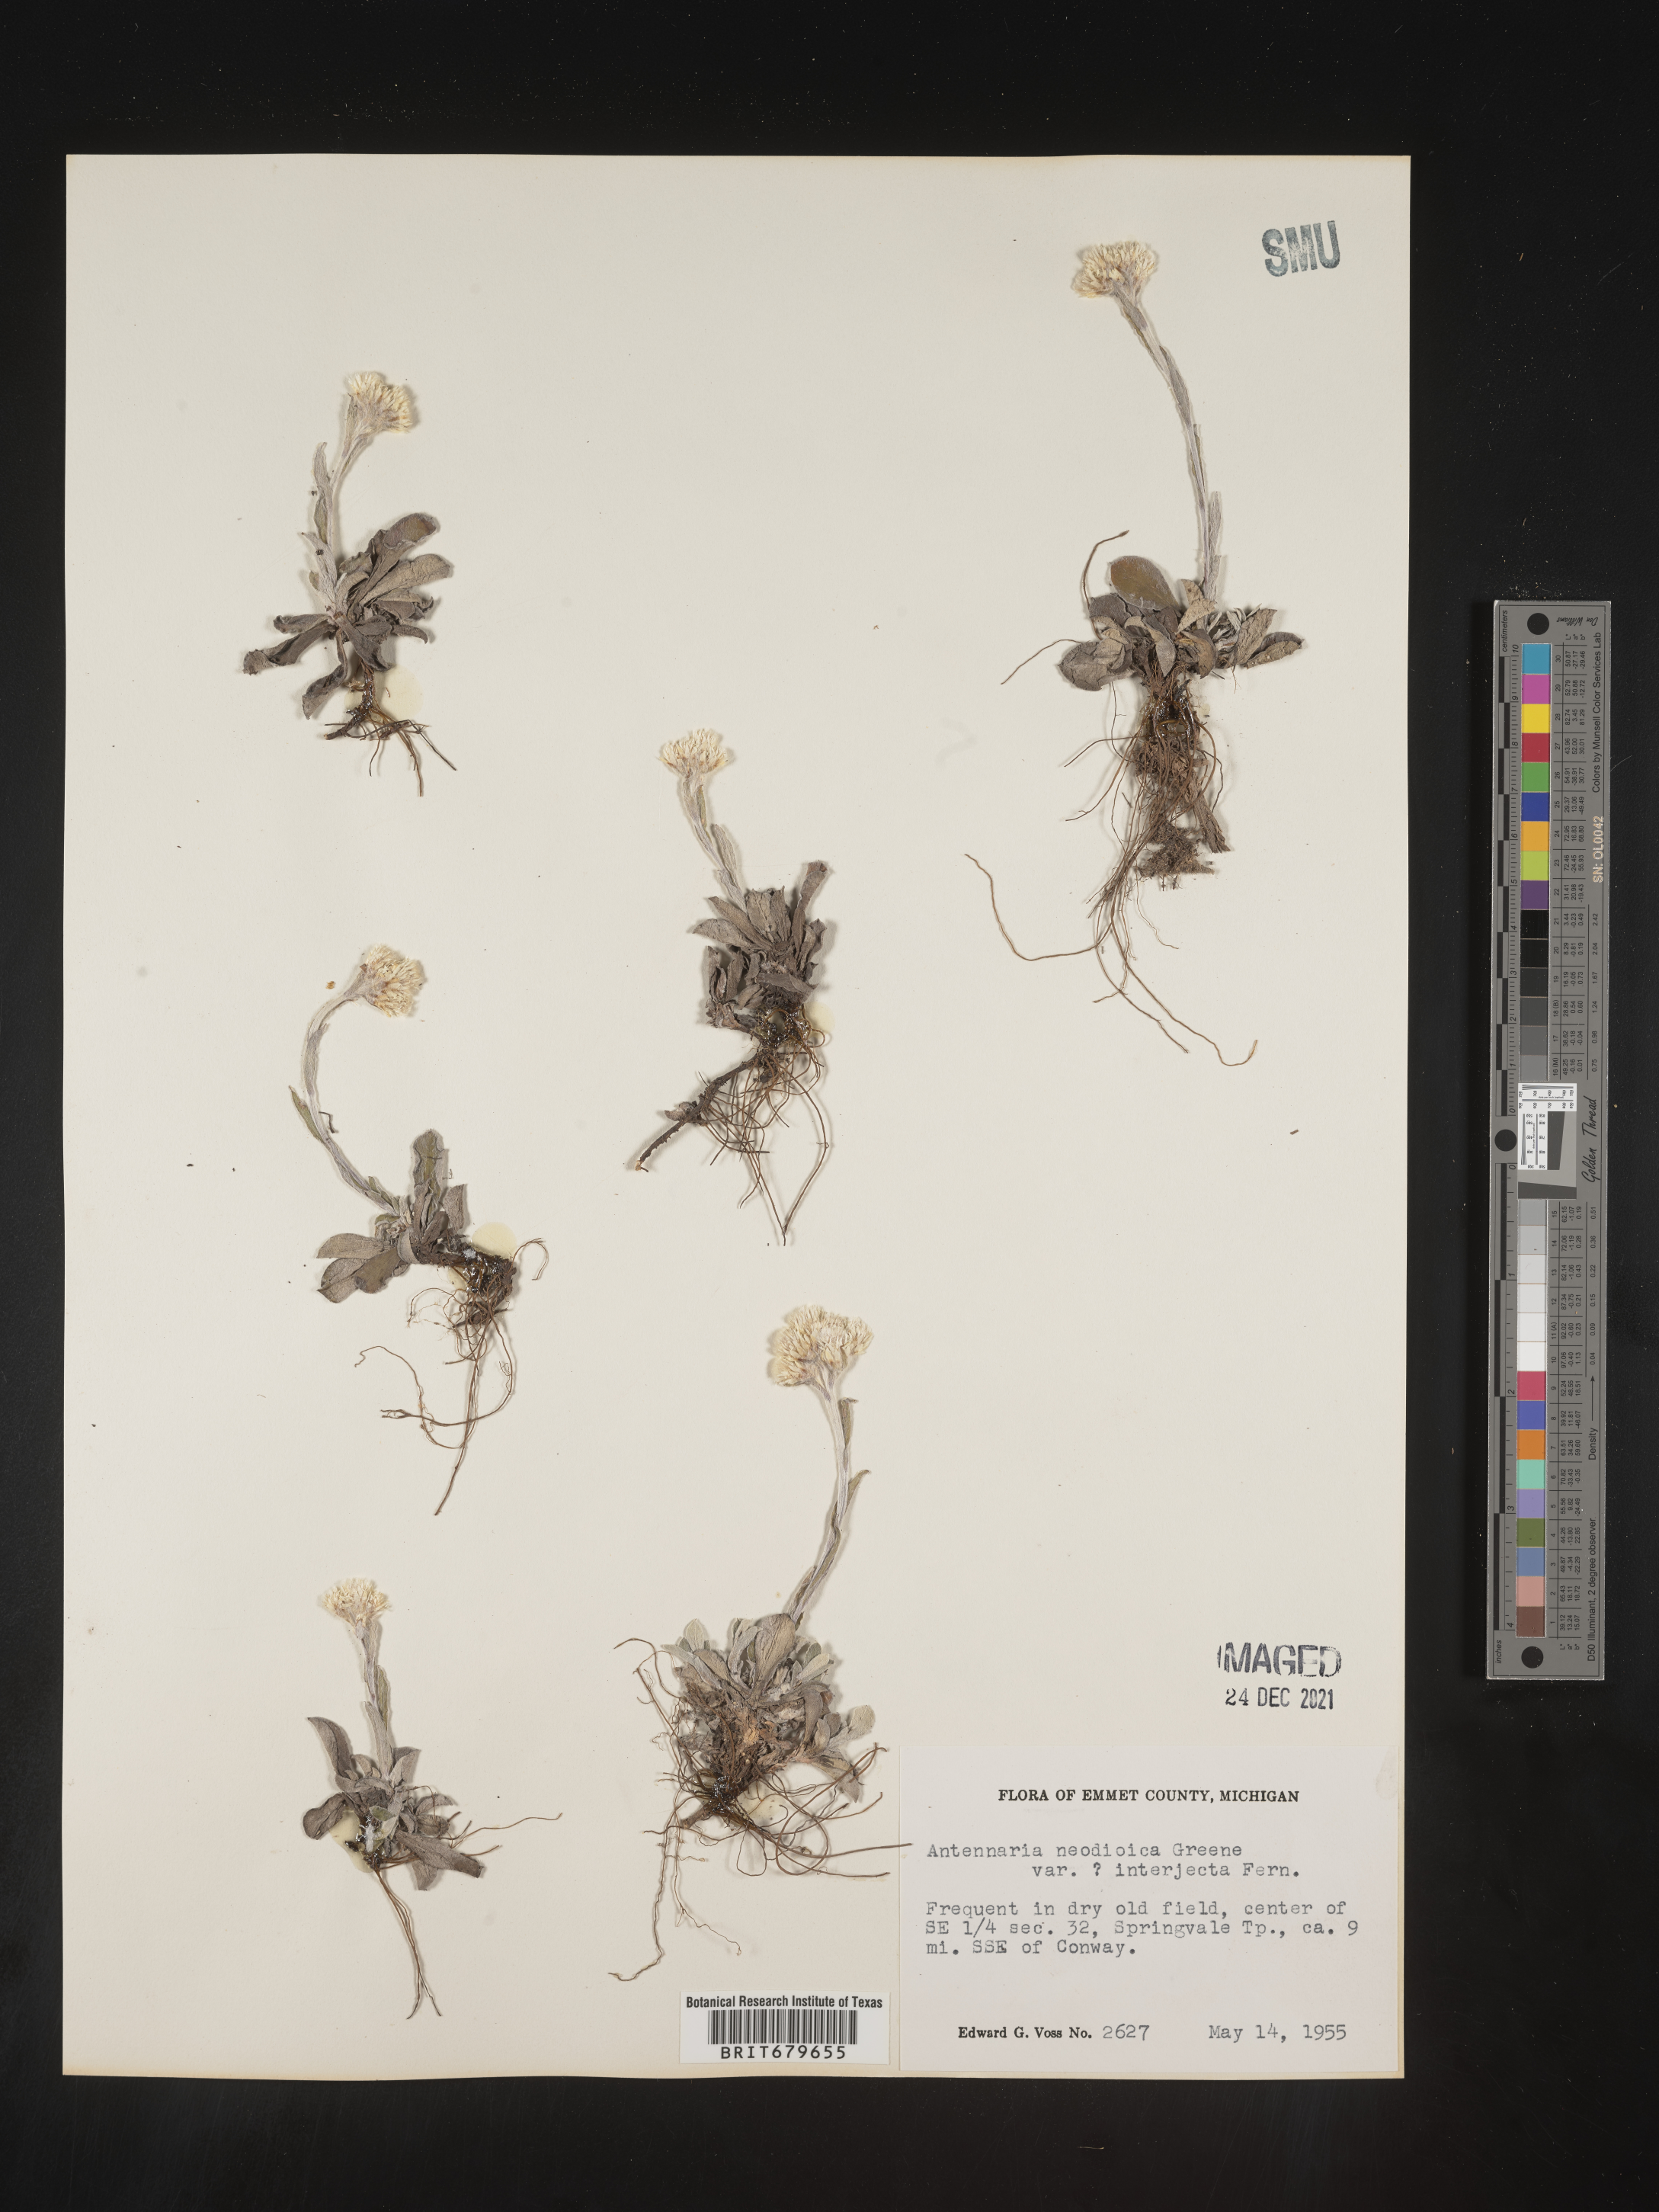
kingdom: Plantae
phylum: Tracheophyta
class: Magnoliopsida
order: Asterales
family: Asteraceae
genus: Antennaria
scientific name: Antennaria howellii
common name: Howell's pussytoes
